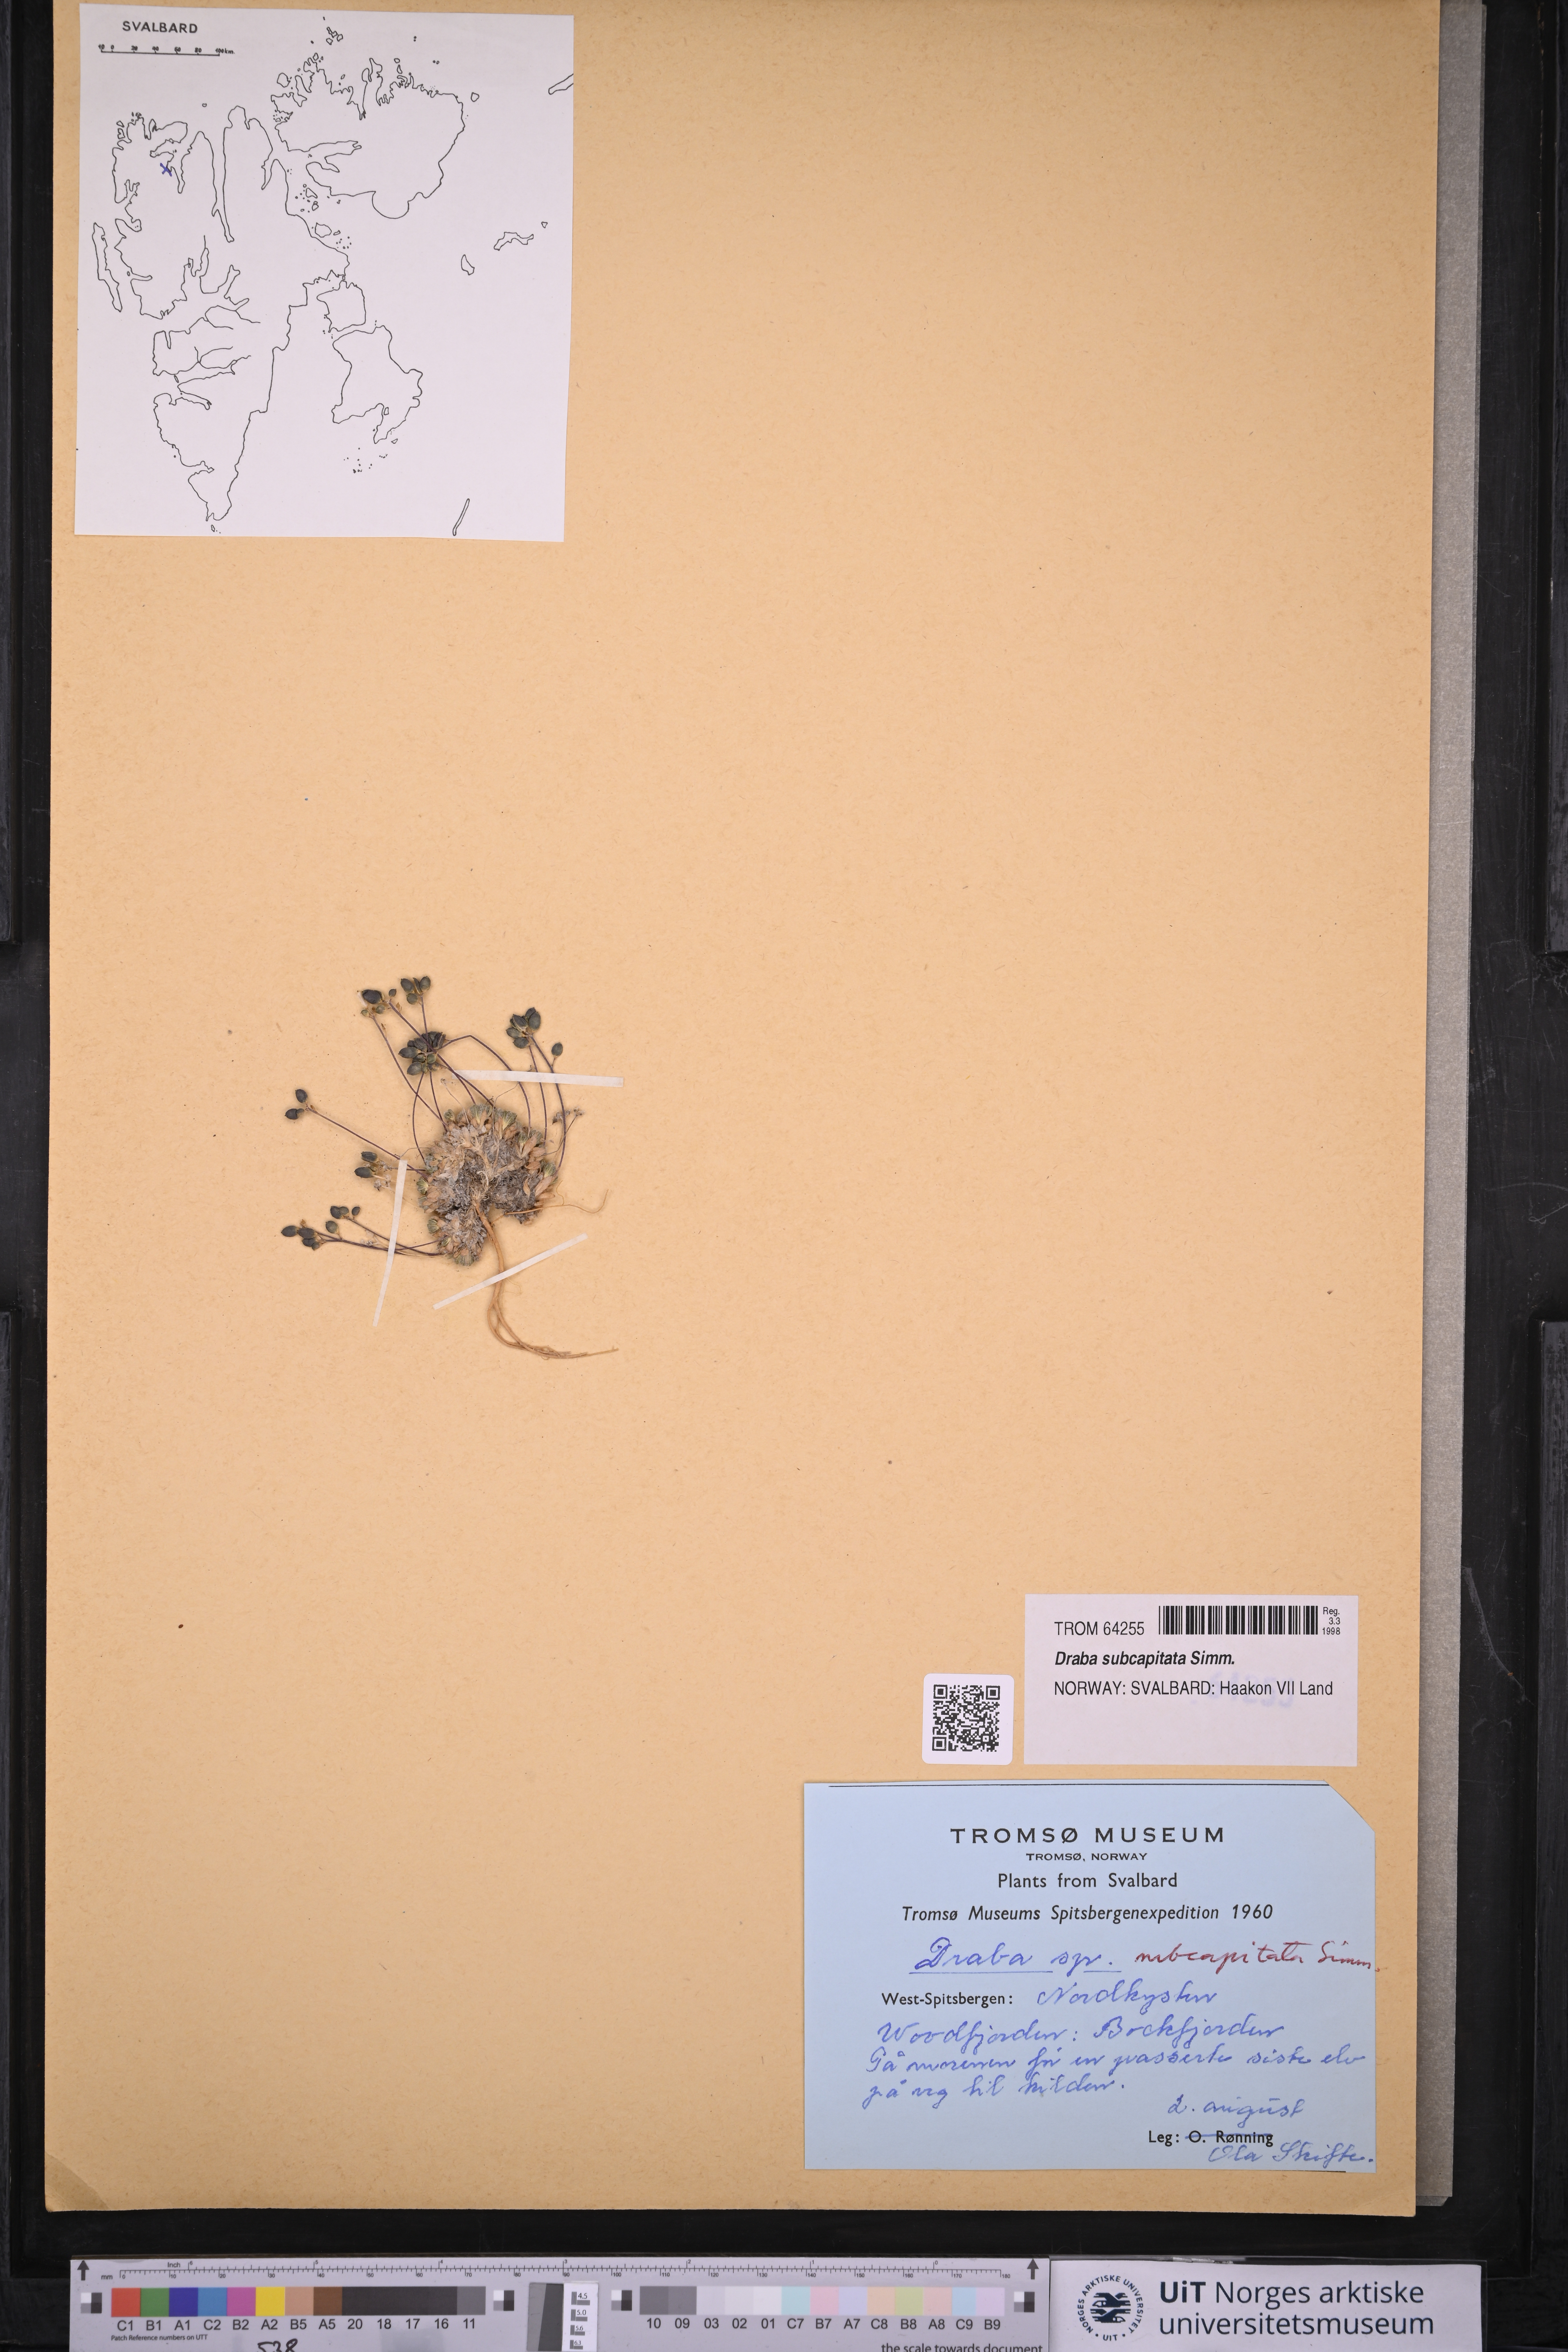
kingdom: Plantae
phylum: Tracheophyta
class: Magnoliopsida
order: Brassicales
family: Brassicaceae
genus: Draba
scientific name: Draba subcapitata
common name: Ellesmere island draba
